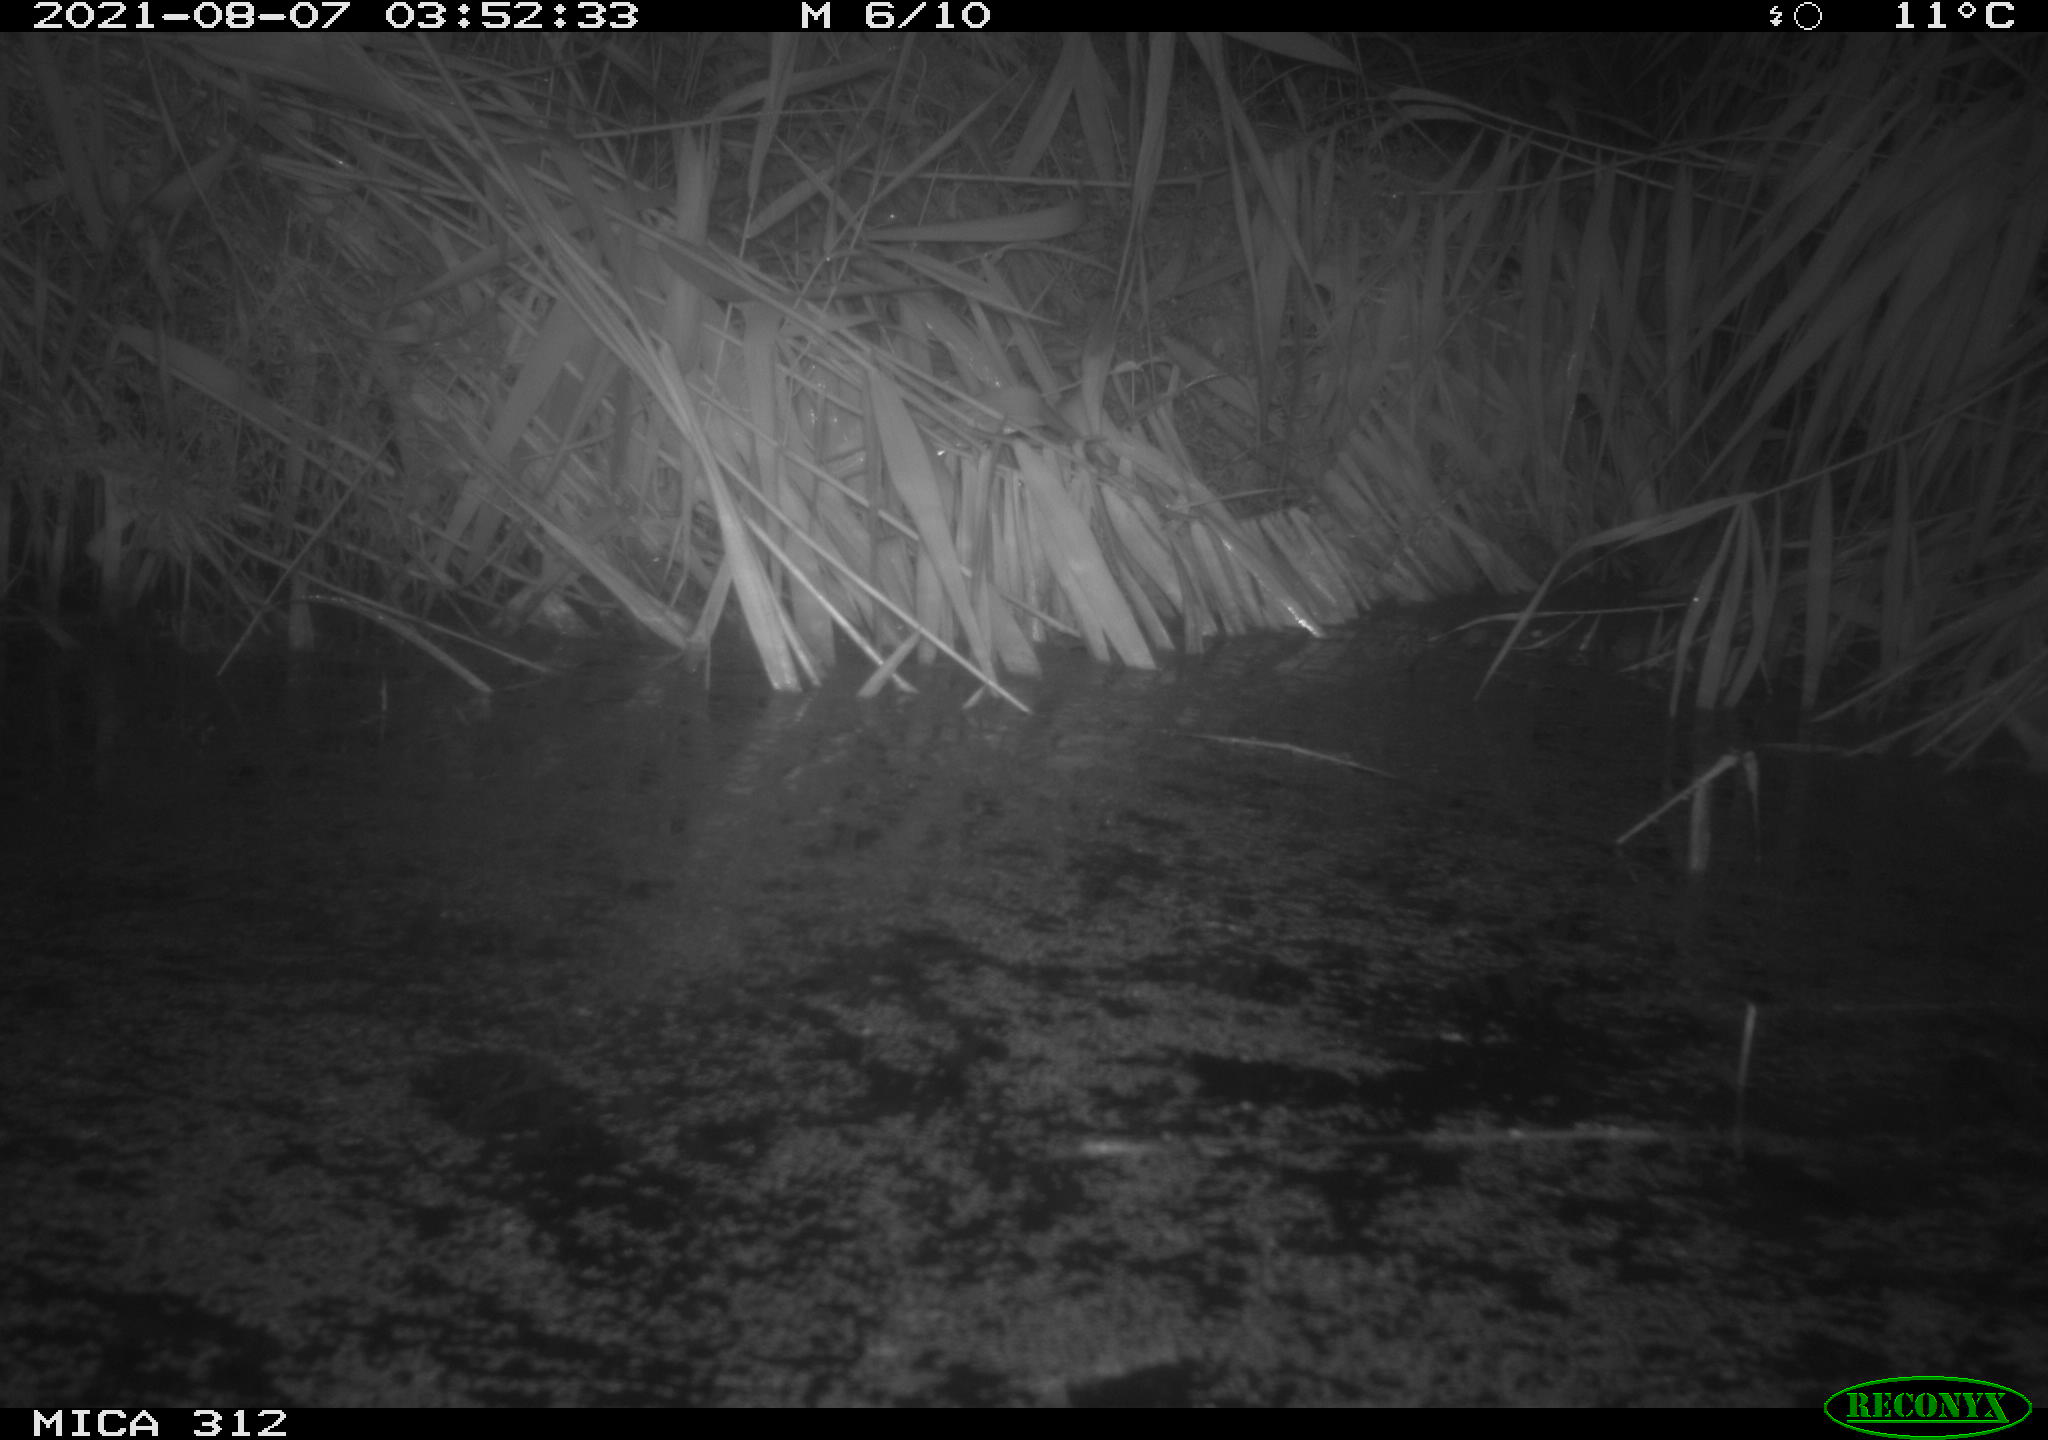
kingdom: Animalia
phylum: Chordata
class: Mammalia
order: Rodentia
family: Muridae
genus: Rattus
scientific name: Rattus norvegicus
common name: Brown rat
